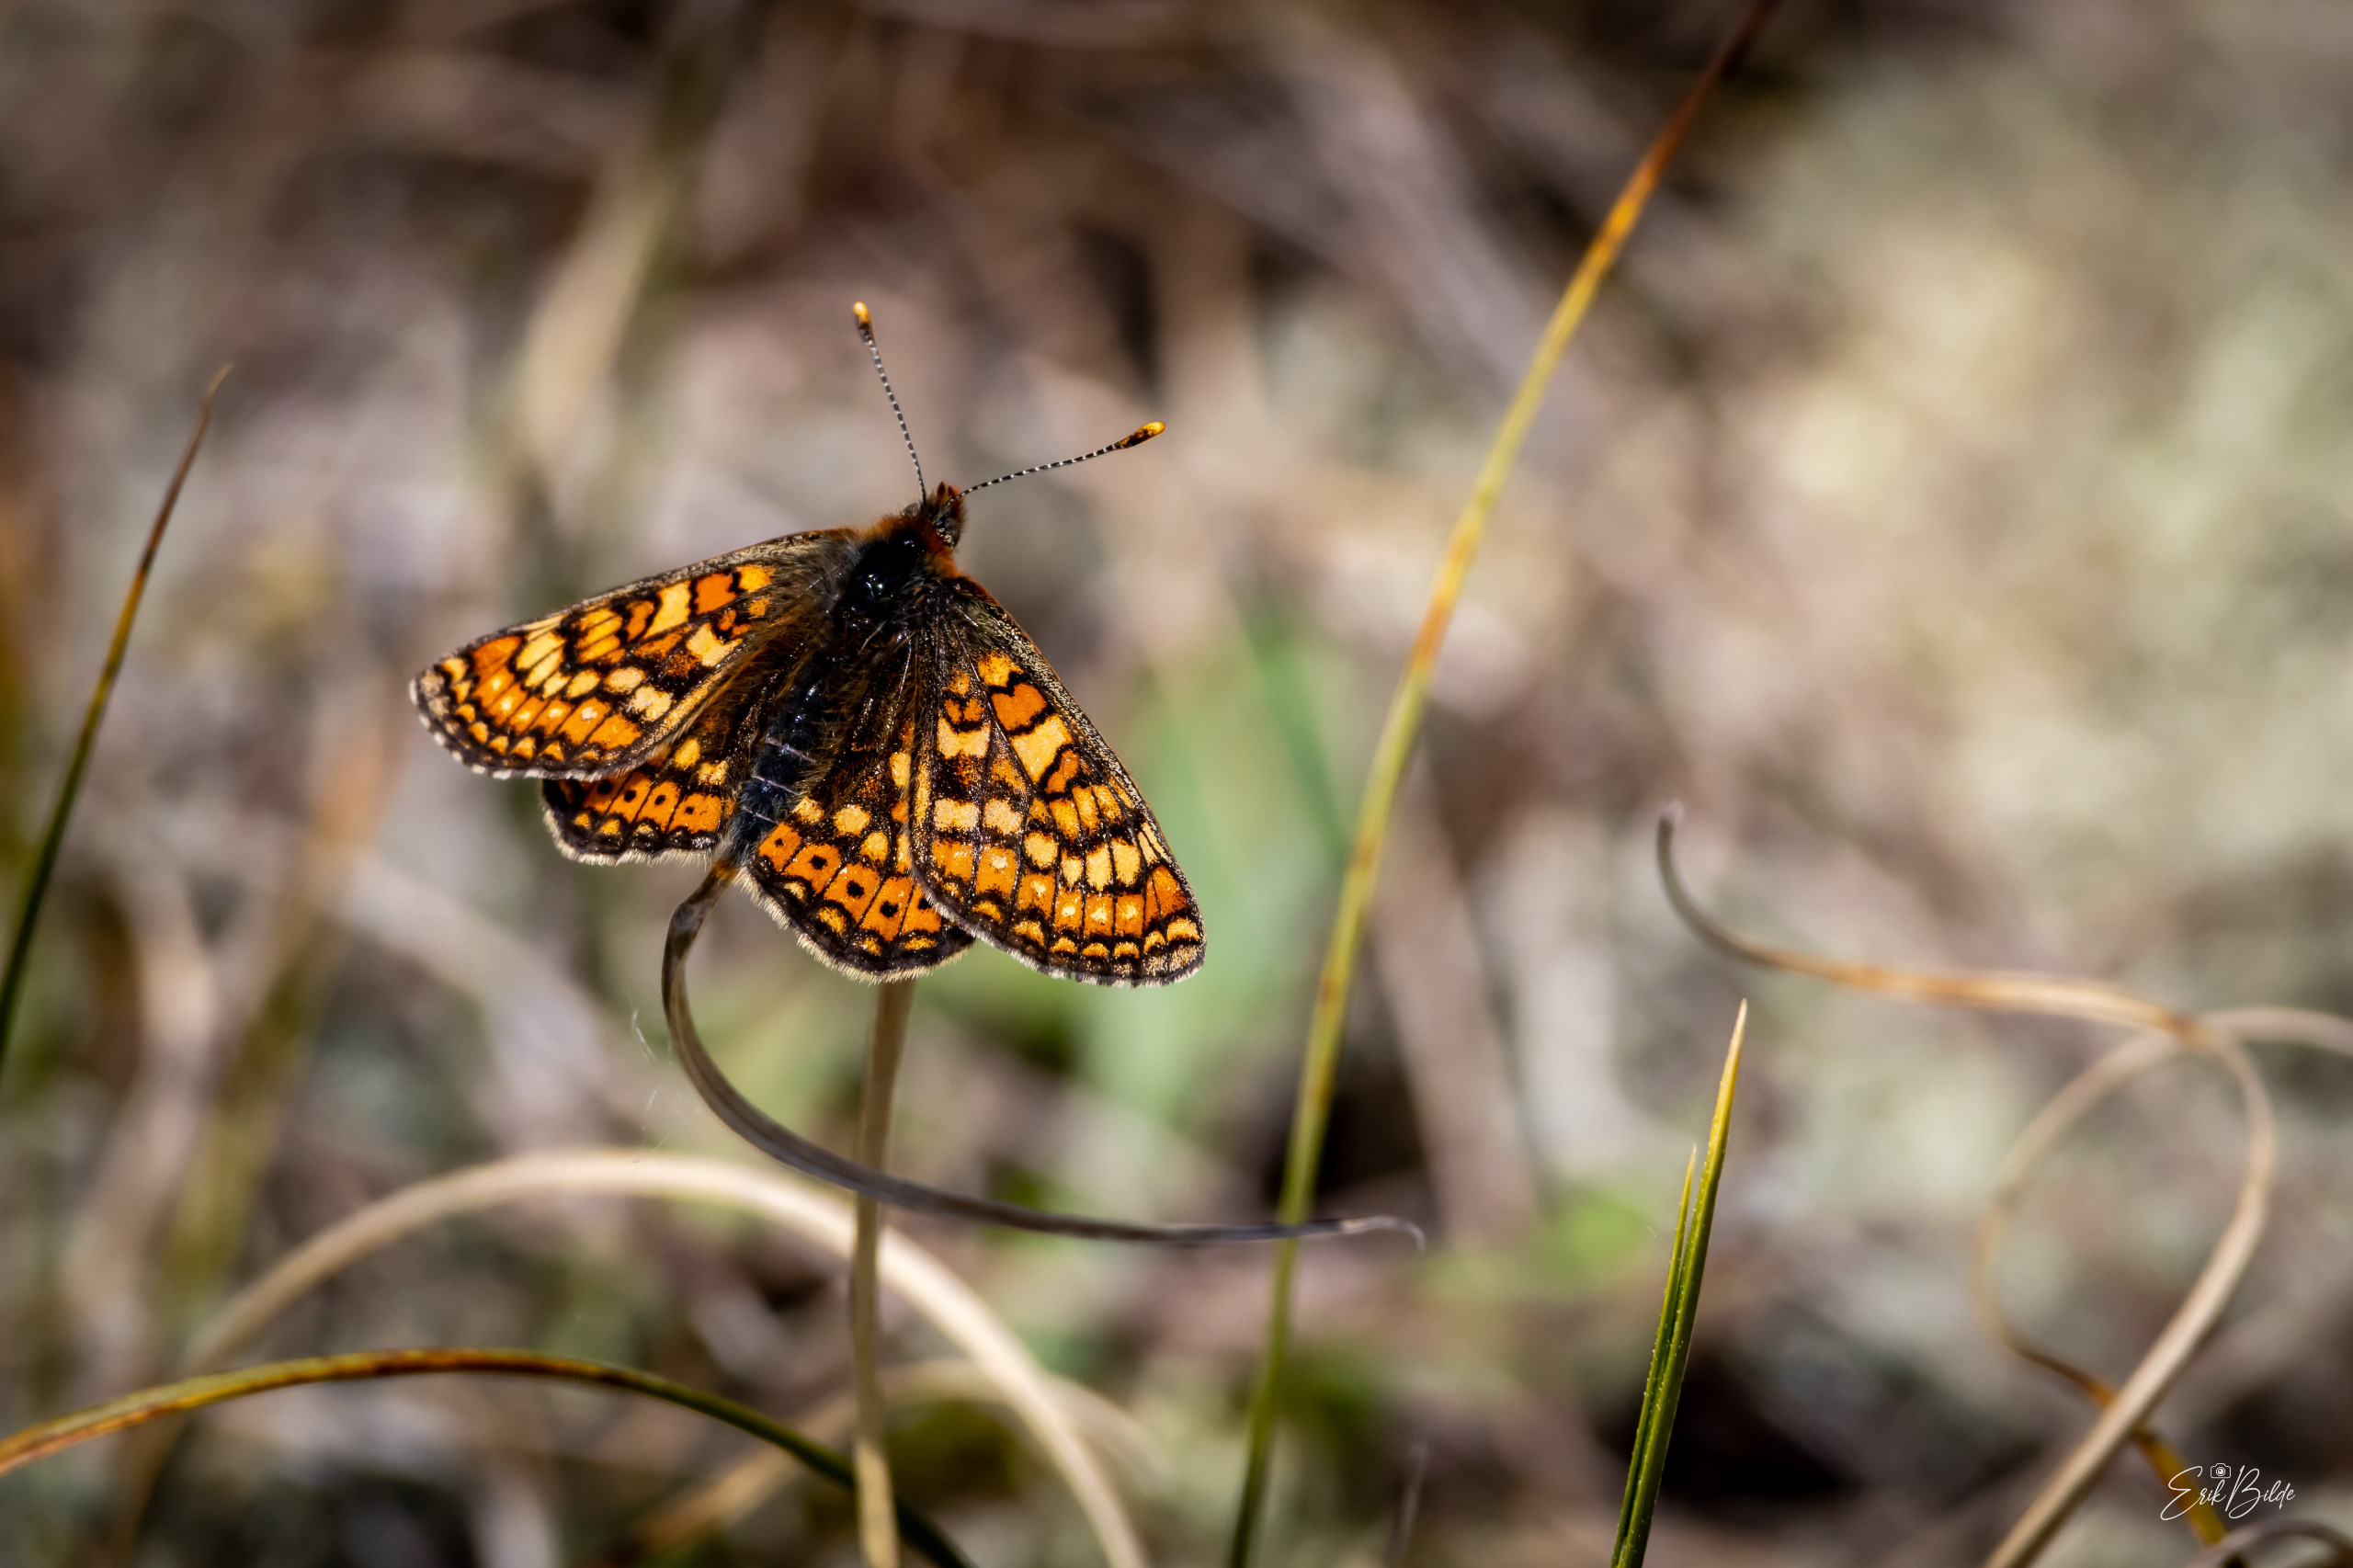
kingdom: Animalia
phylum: Arthropoda
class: Insecta
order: Lepidoptera
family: Nymphalidae
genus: Euphydryas
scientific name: Euphydryas aurinia
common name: Hedepletvinge
